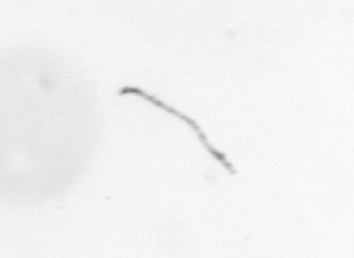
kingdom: Chromista
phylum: Ochrophyta
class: Bacillariophyceae
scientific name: Bacillariophyceae
